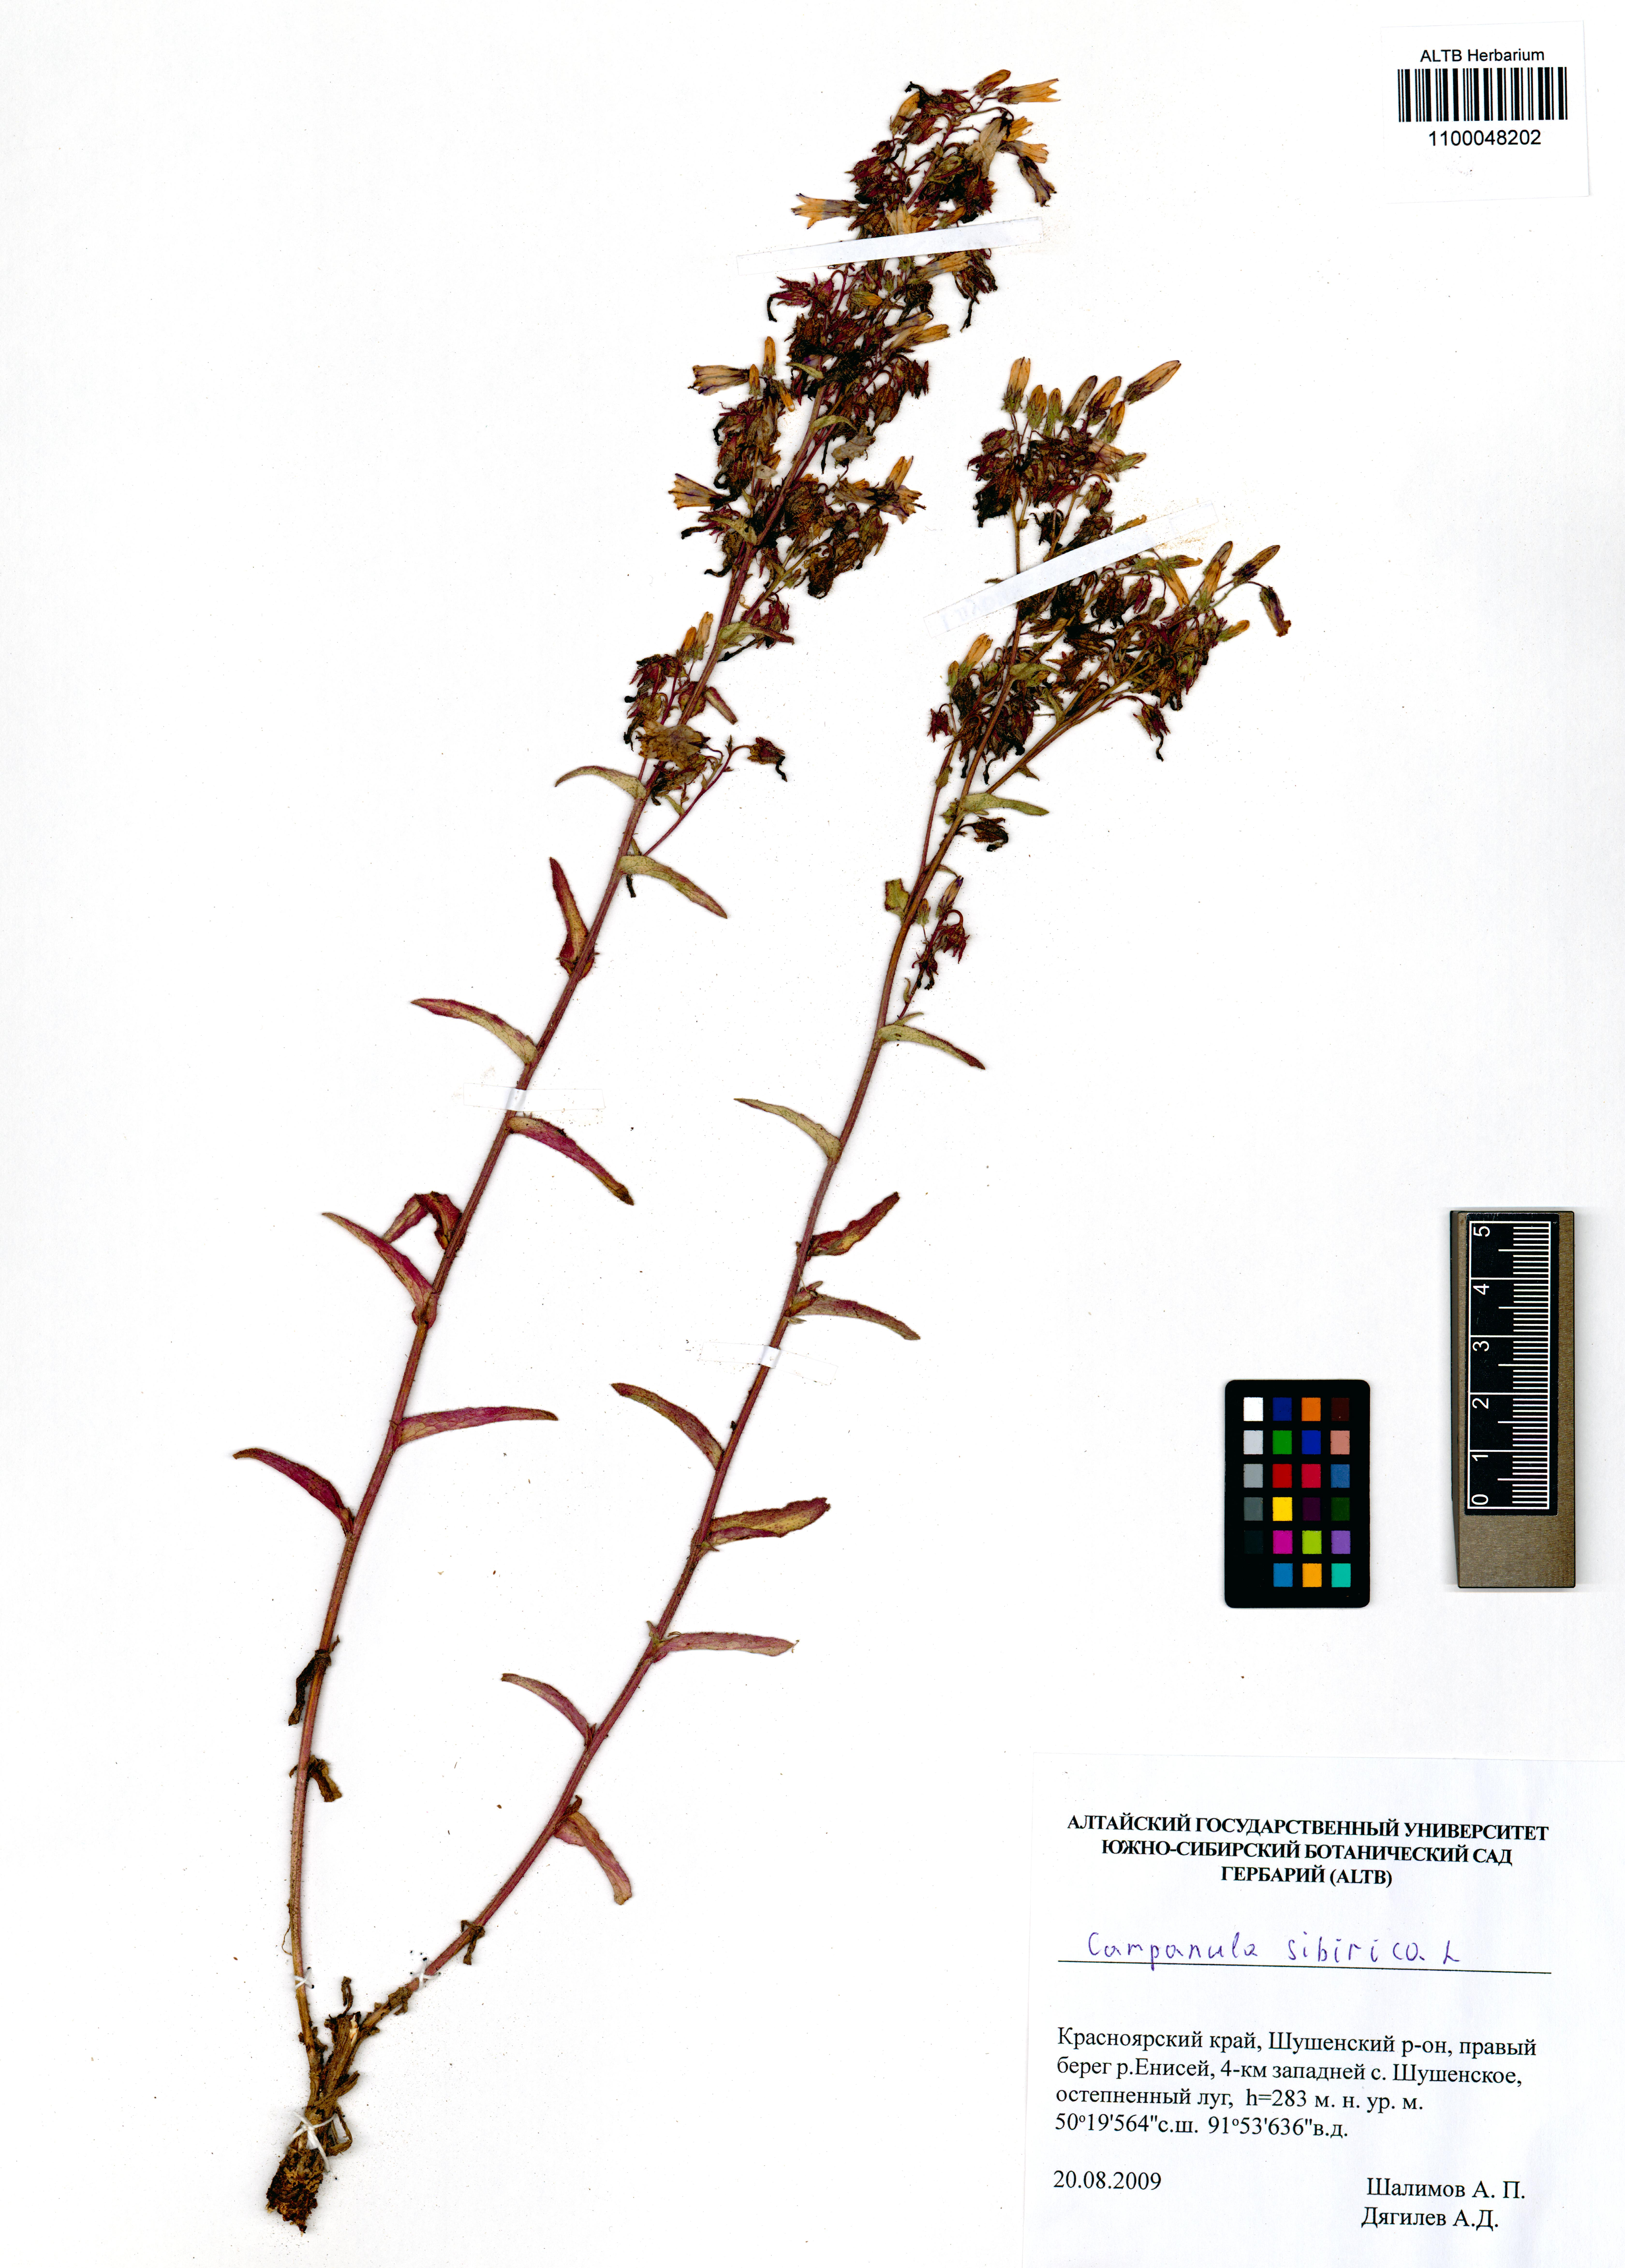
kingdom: Plantae
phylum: Tracheophyta
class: Magnoliopsida
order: Asterales
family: Campanulaceae
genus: Campanula
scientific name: Campanula sibirica
